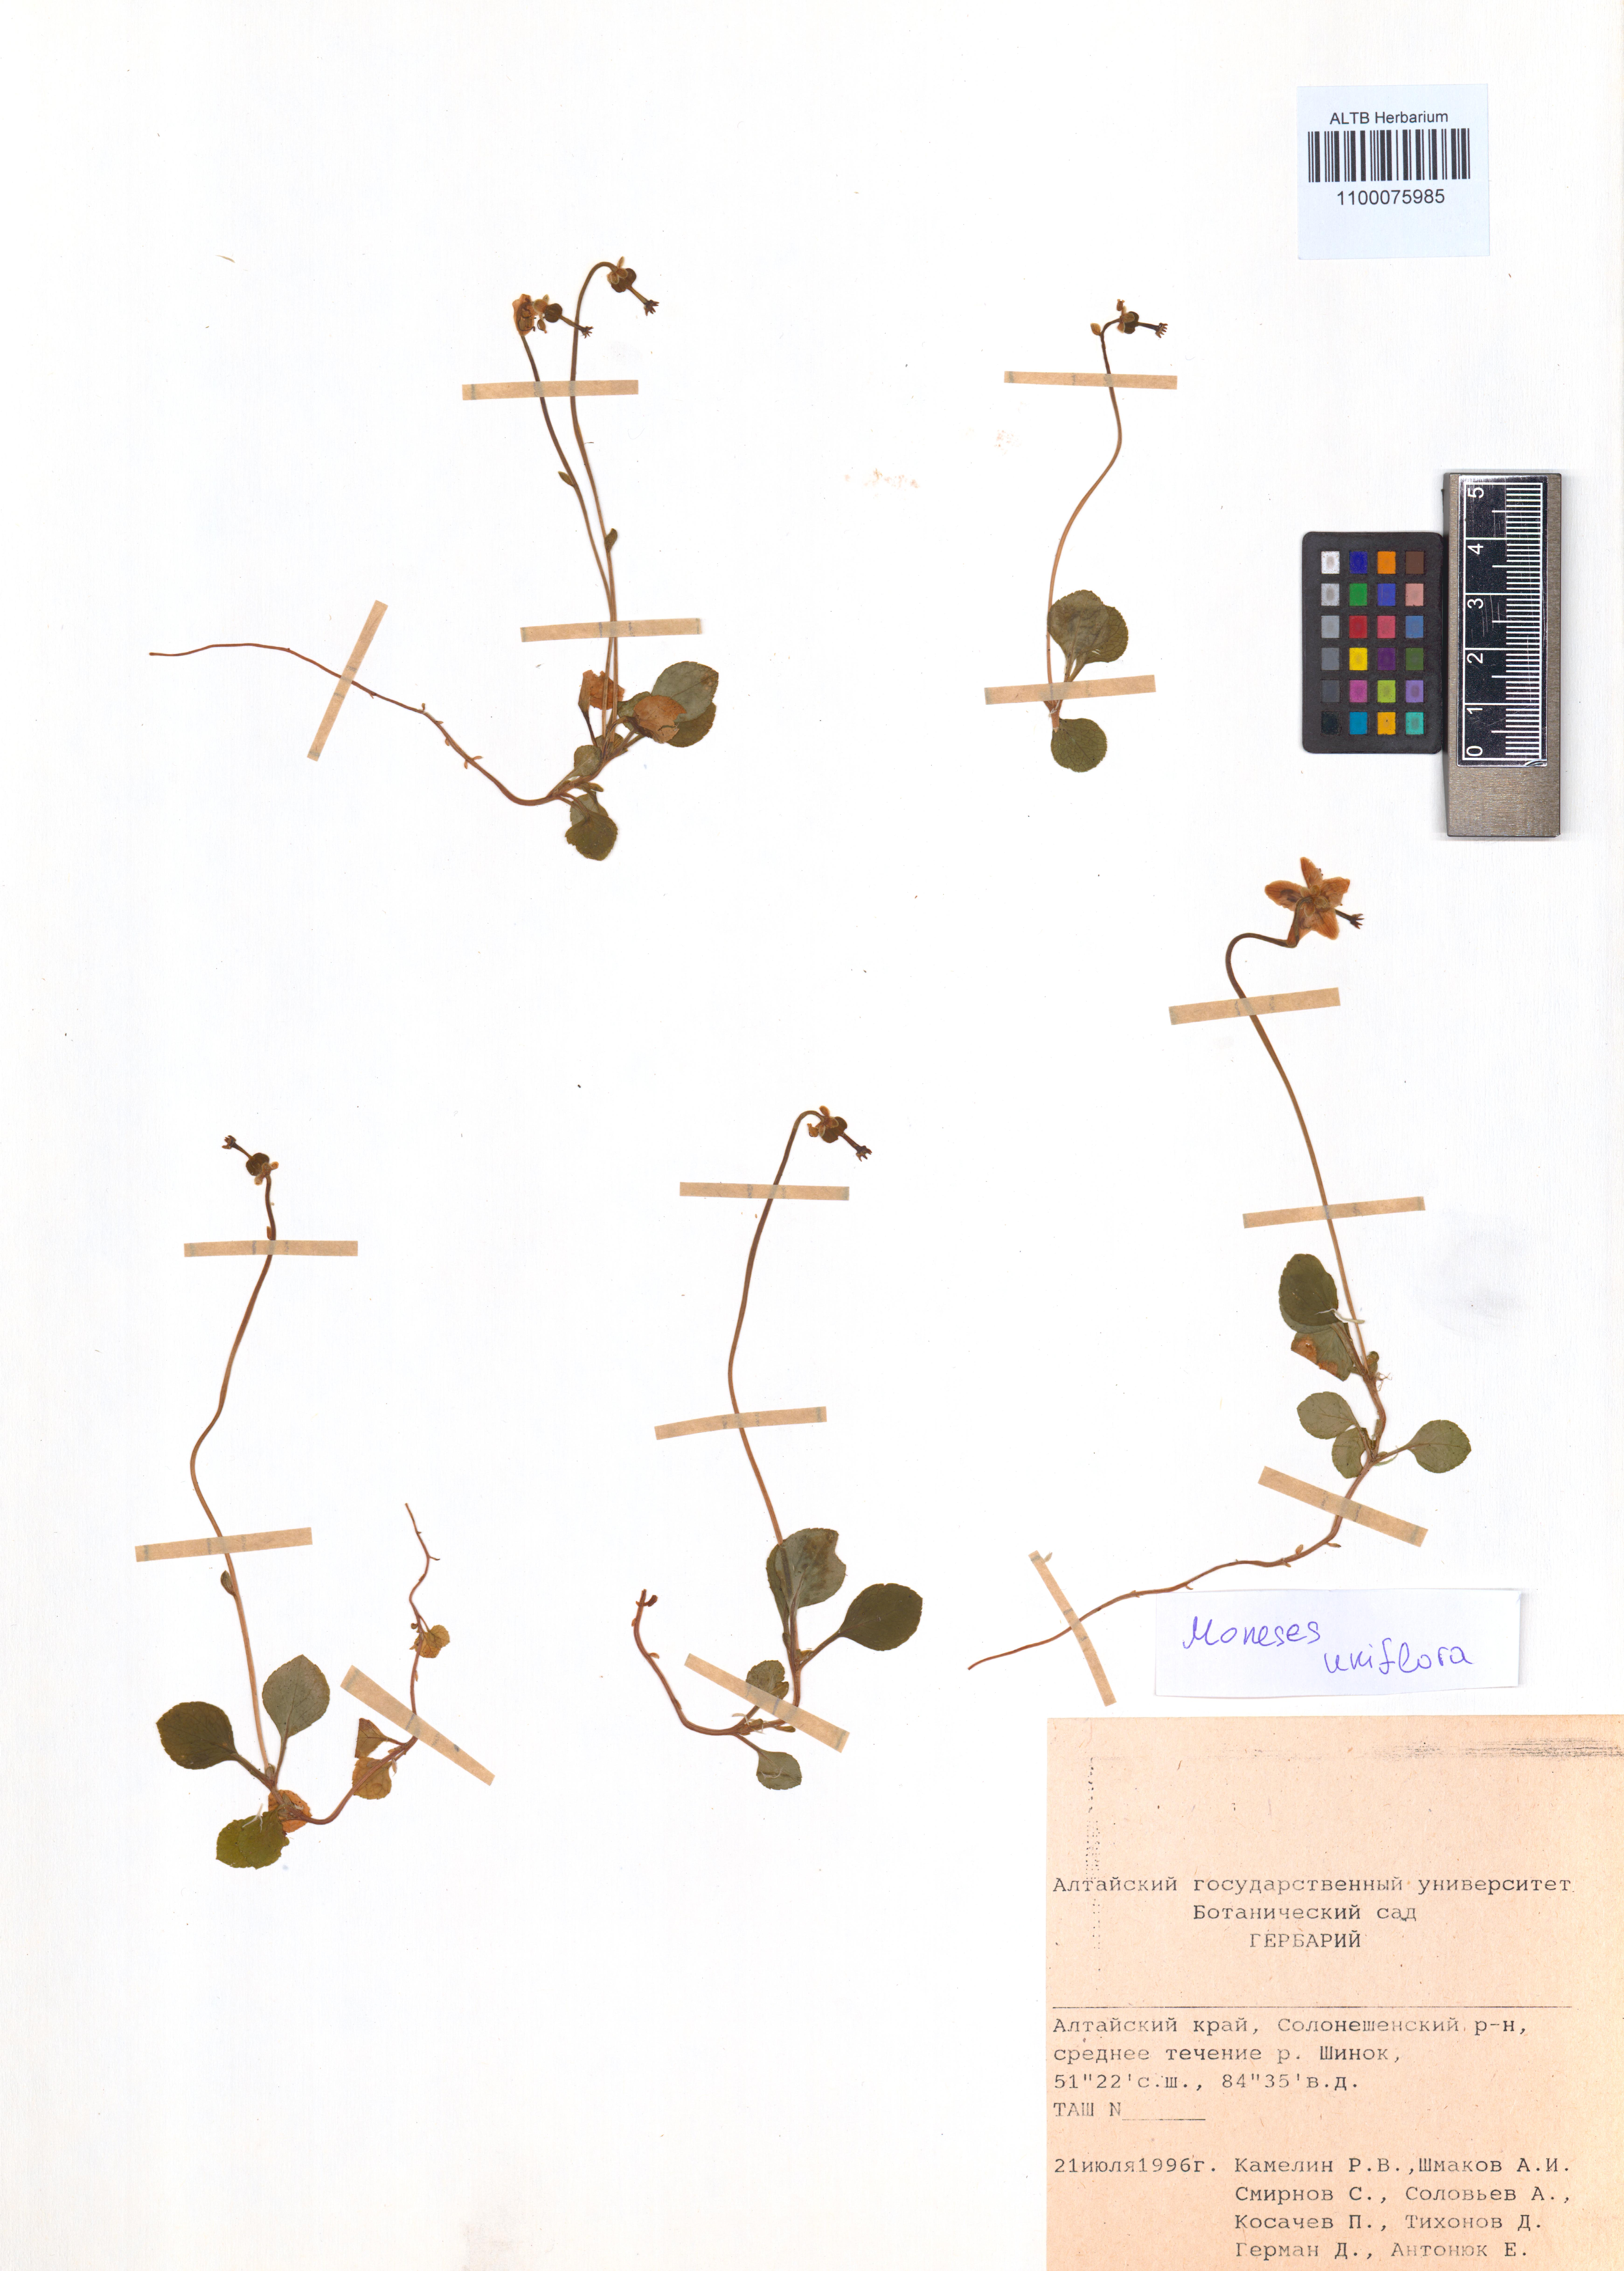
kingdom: Plantae
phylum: Tracheophyta
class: Magnoliopsida
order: Ericales
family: Ericaceae
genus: Moneses
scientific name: Moneses uniflora
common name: One-flowered wintergreen
